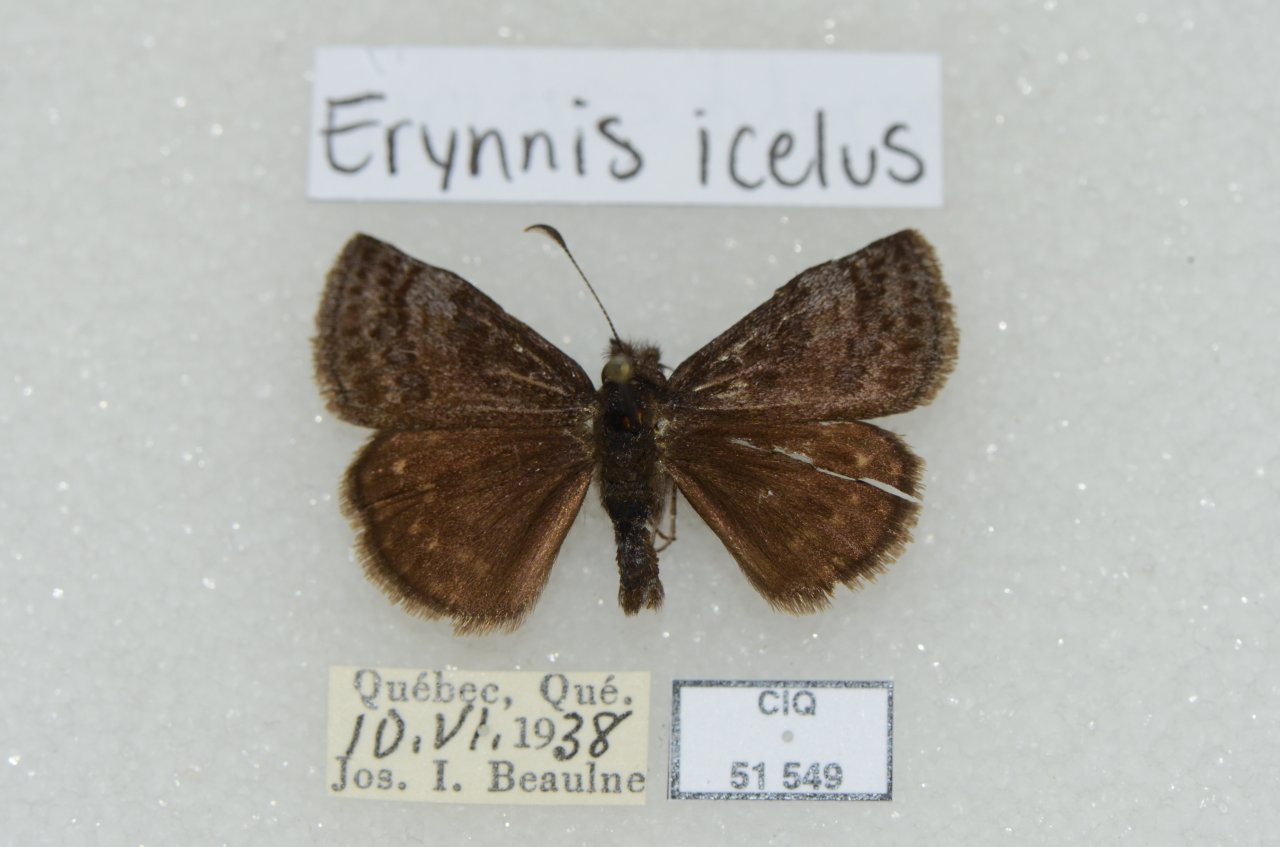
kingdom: Animalia
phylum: Arthropoda
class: Insecta
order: Lepidoptera
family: Hesperiidae
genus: Erynnis
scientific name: Erynnis icelus
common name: Dreamy Duskywing
